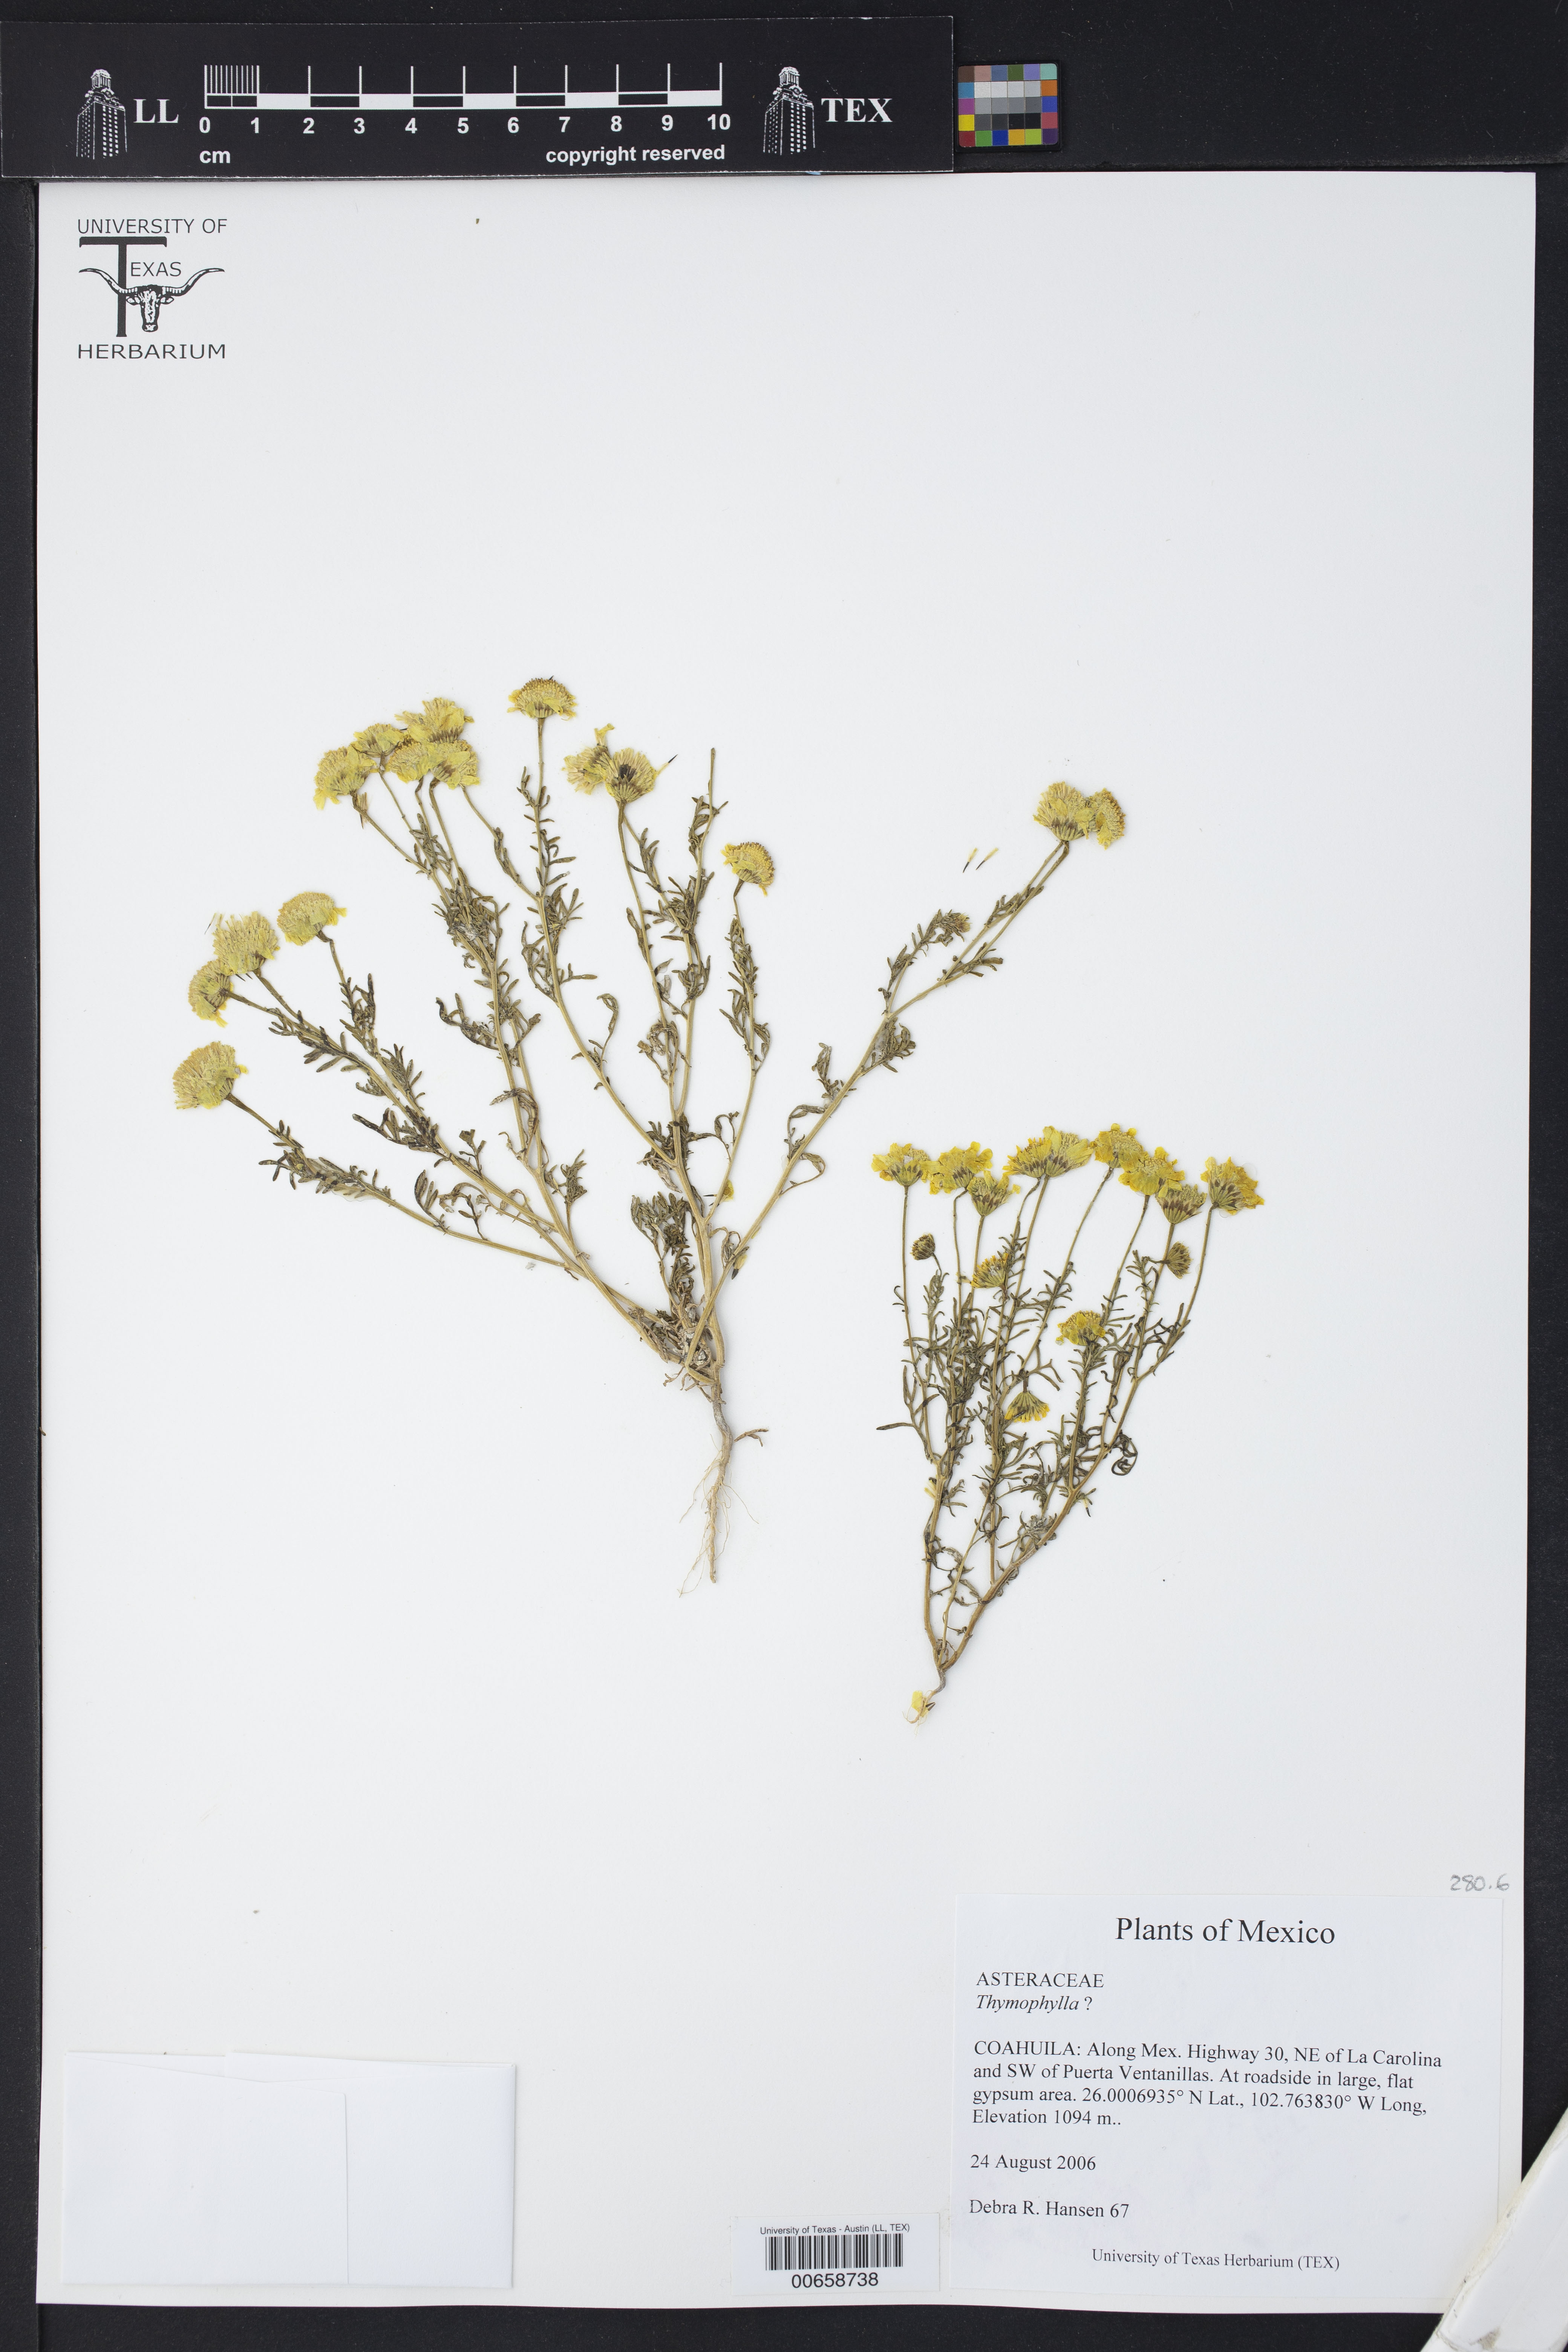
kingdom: Plantae
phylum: Tracheophyta
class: Magnoliopsida
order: Asterales
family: Asteraceae
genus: Thymophylla
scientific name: Thymophylla
